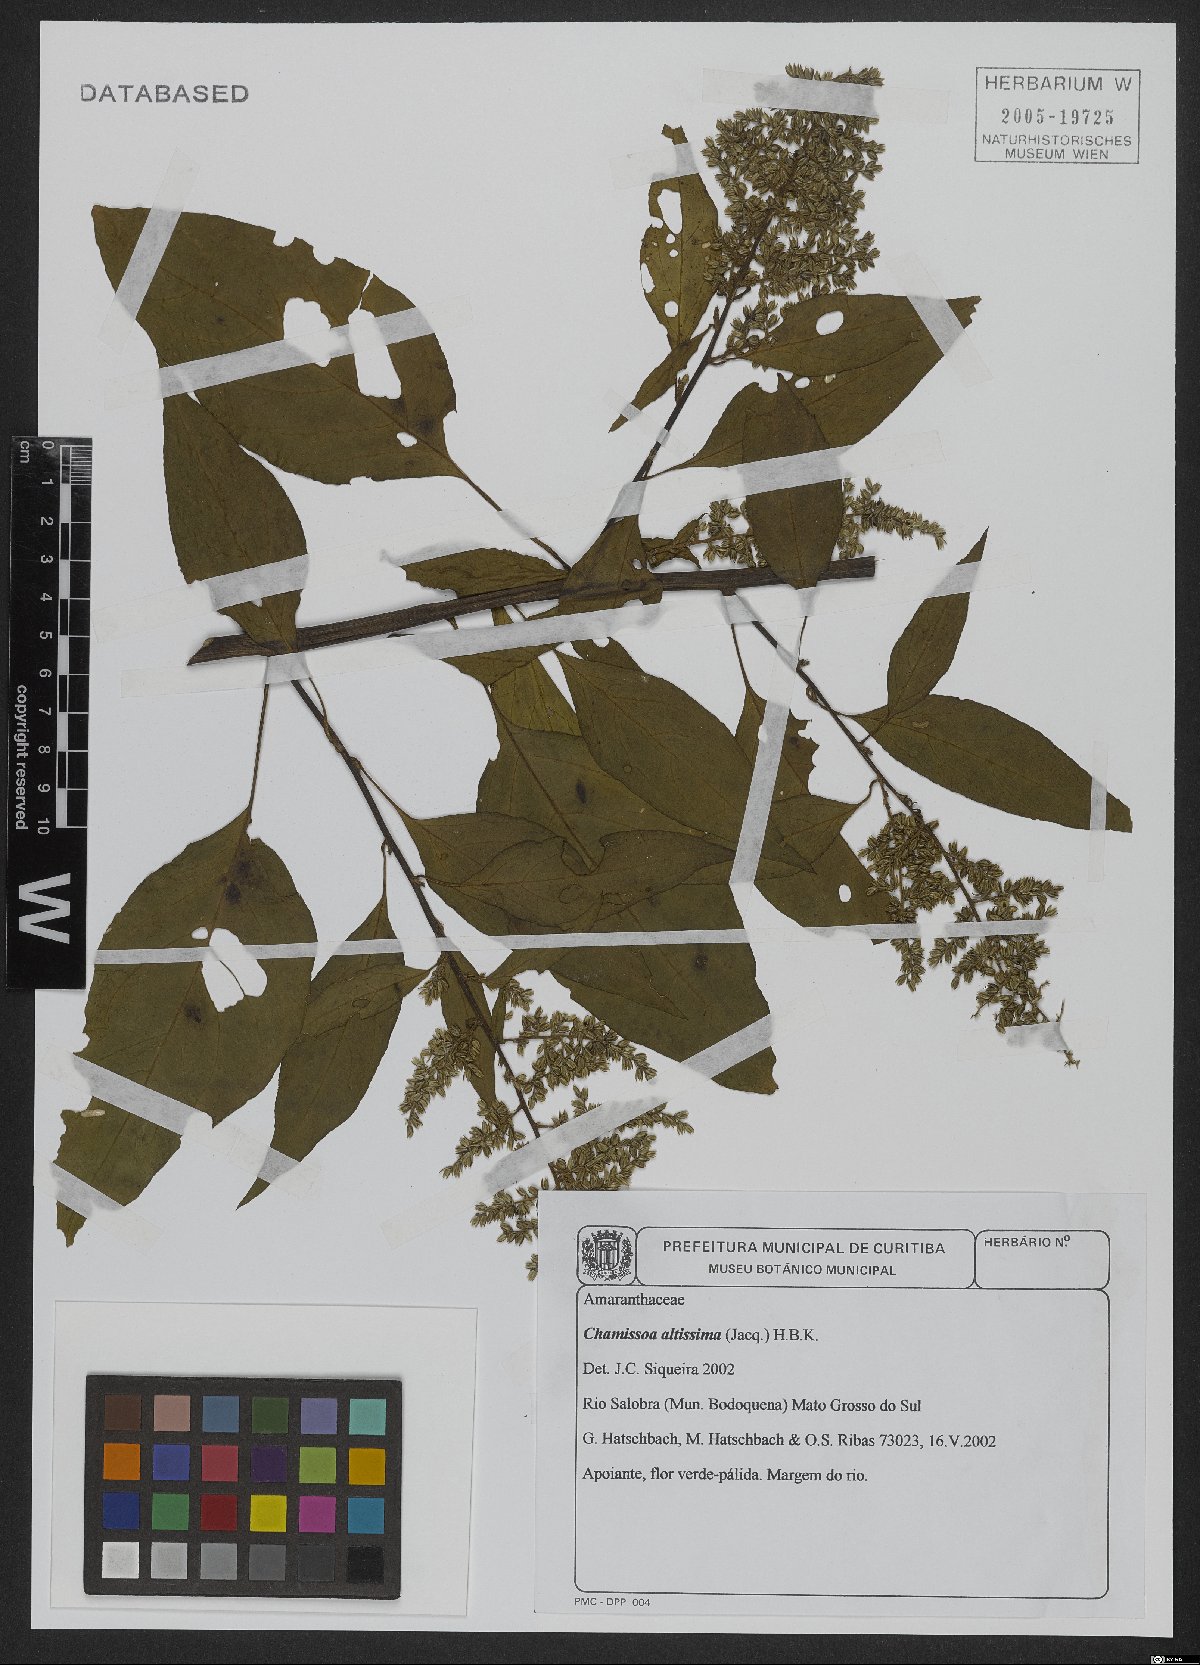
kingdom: Plantae
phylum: Tracheophyta
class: Magnoliopsida
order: Caryophyllales
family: Amaranthaceae
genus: Chamissoa
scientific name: Chamissoa altissima
